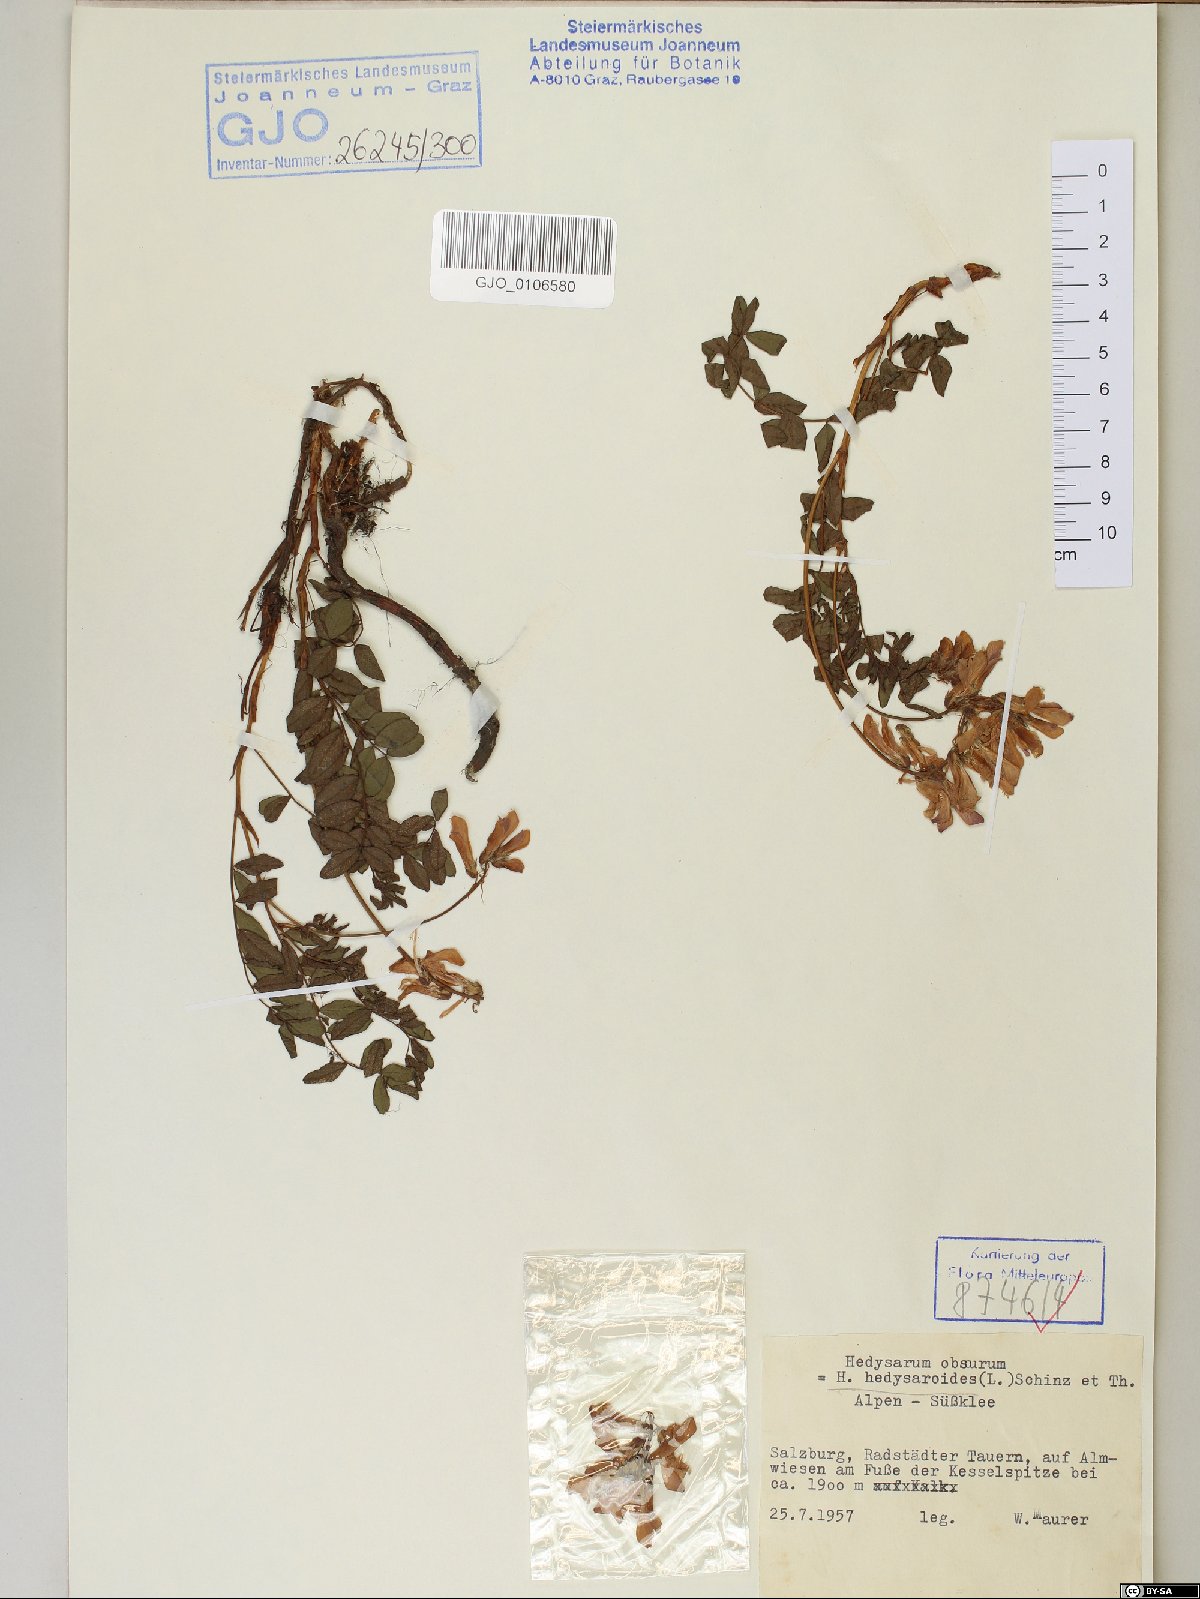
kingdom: Plantae
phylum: Tracheophyta
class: Magnoliopsida
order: Fabales
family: Fabaceae
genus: Hedysarum
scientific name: Hedysarum hedysaroides
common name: Alpine french-honeysuckle
